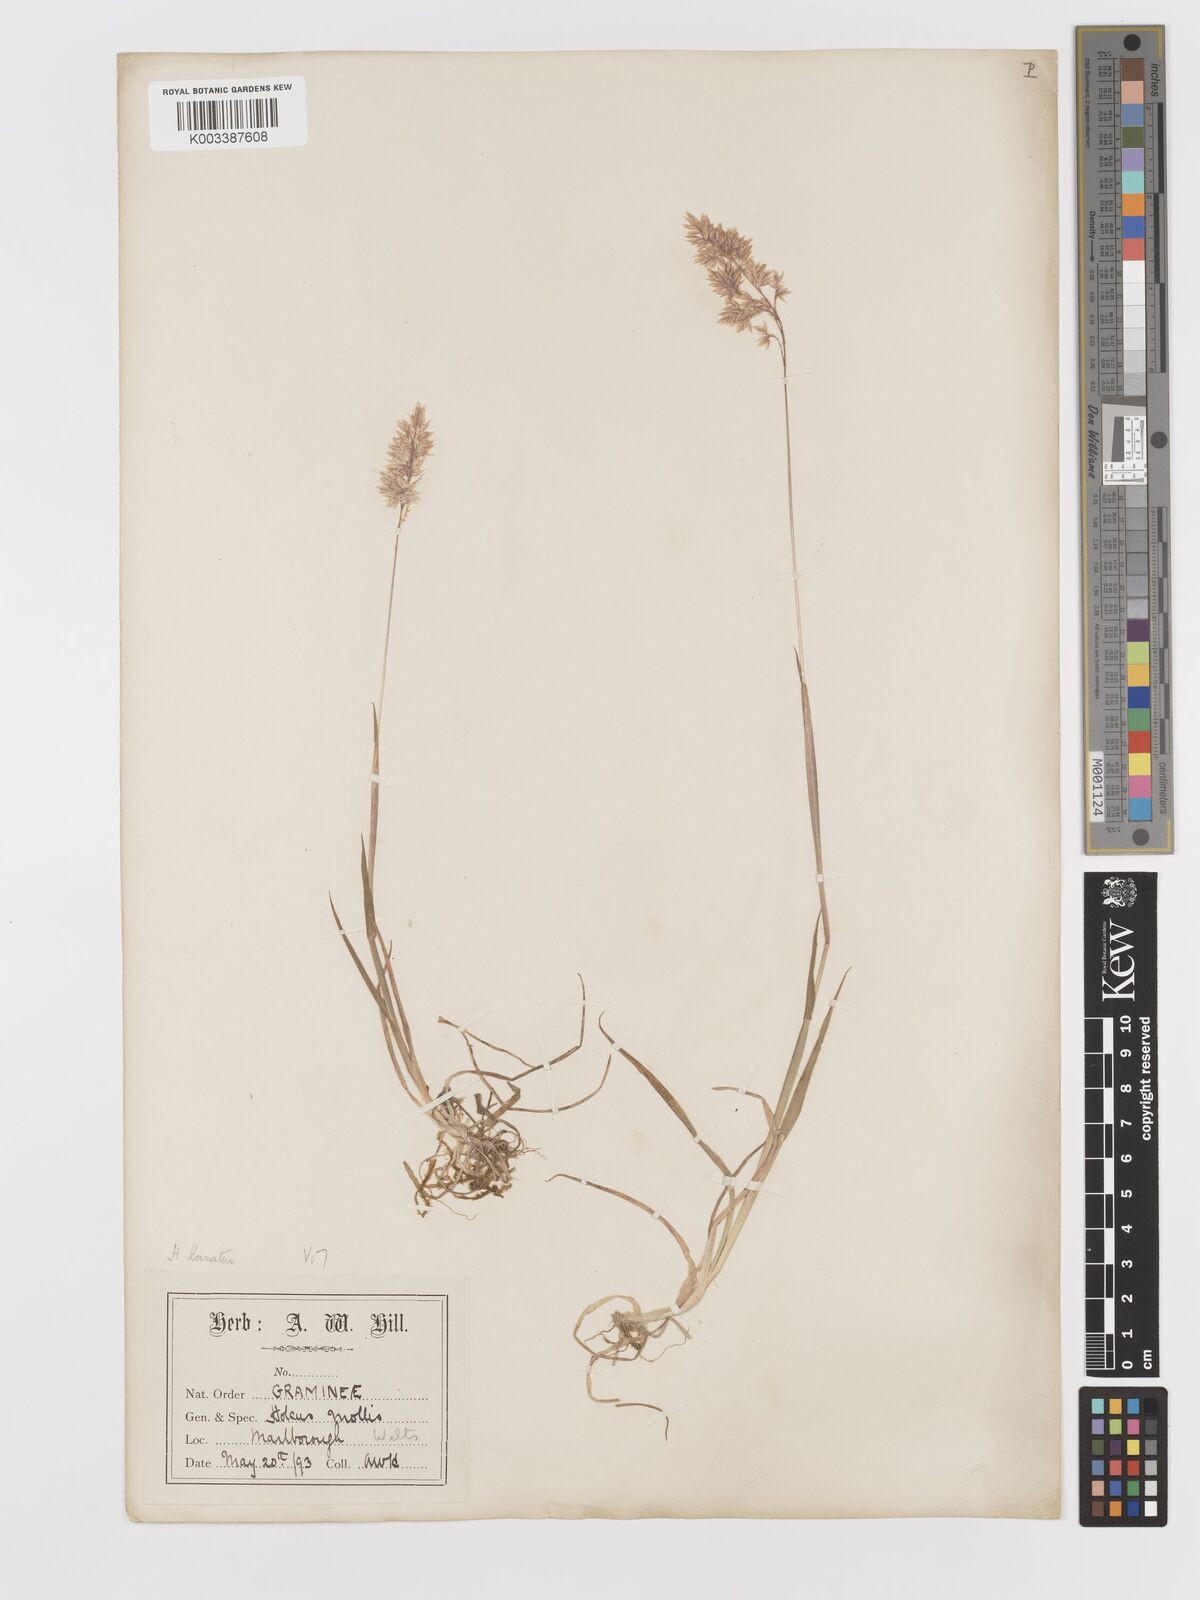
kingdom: Plantae
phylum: Tracheophyta
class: Liliopsida
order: Poales
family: Poaceae
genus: Holcus
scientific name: Holcus lanatus
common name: Yorkshire-fog
